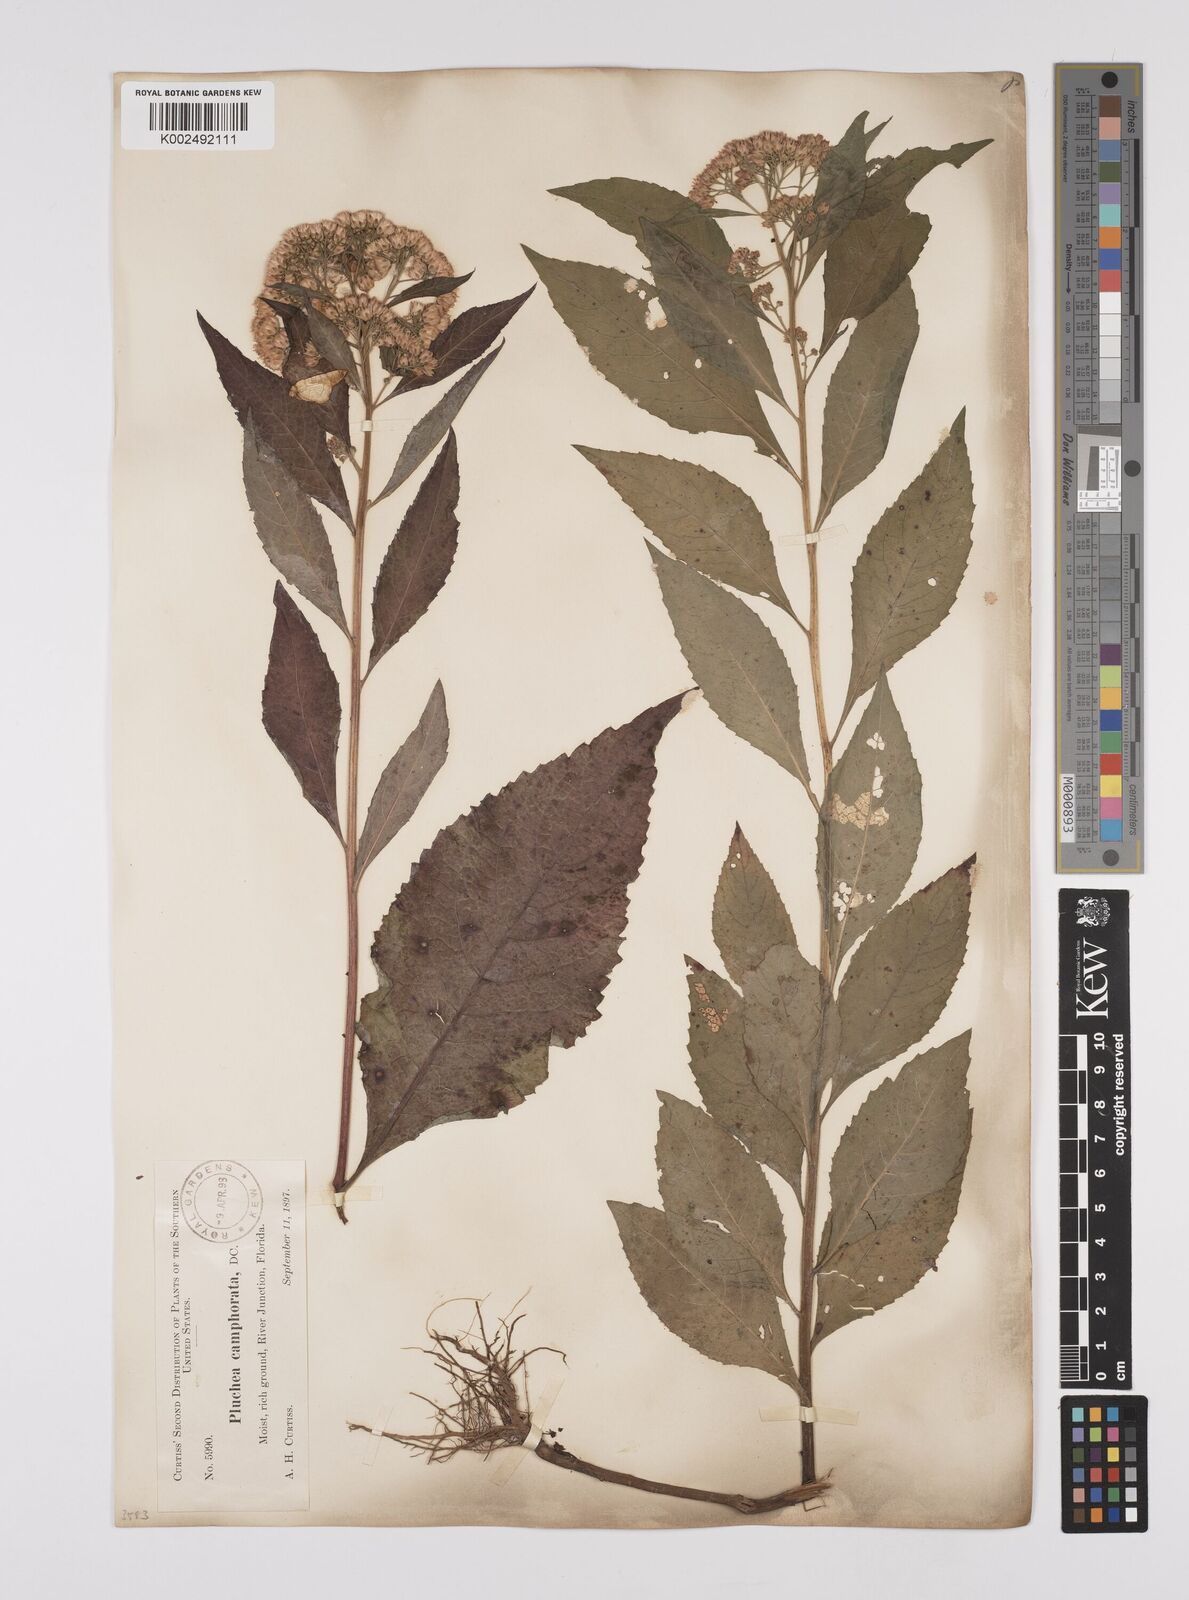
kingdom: Plantae
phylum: Tracheophyta
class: Magnoliopsida
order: Asterales
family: Asteraceae
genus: Pluchea
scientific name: Pluchea
